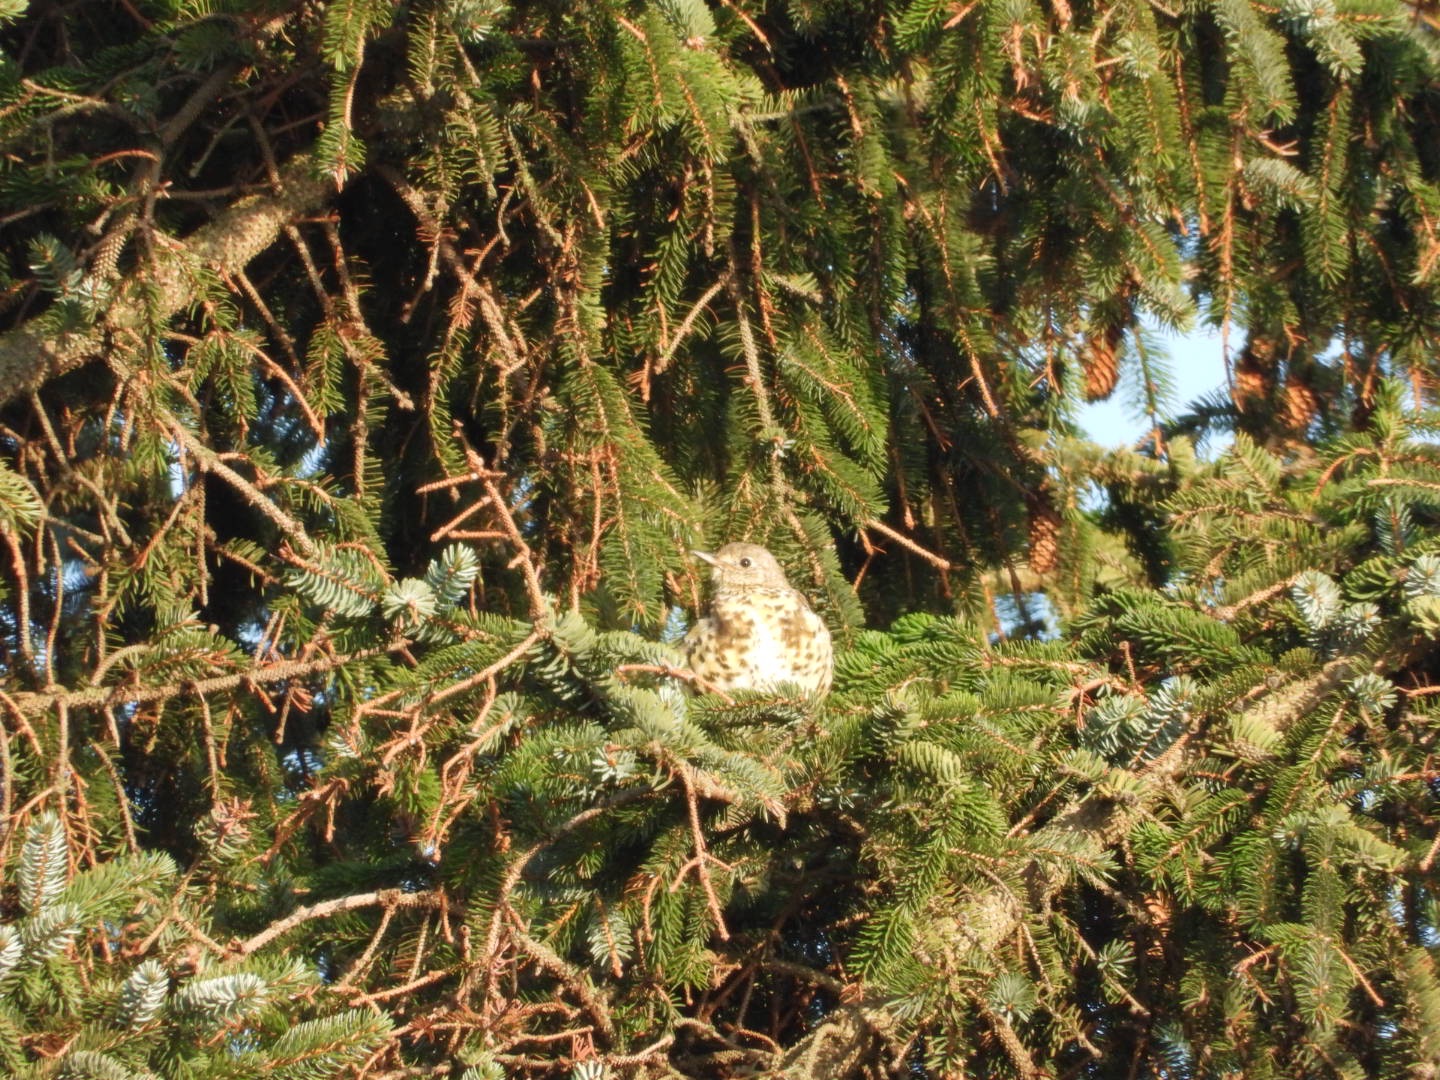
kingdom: Animalia
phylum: Chordata
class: Aves
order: Passeriformes
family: Turdidae
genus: Turdus
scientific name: Turdus viscivorus
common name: Misteldrossel
